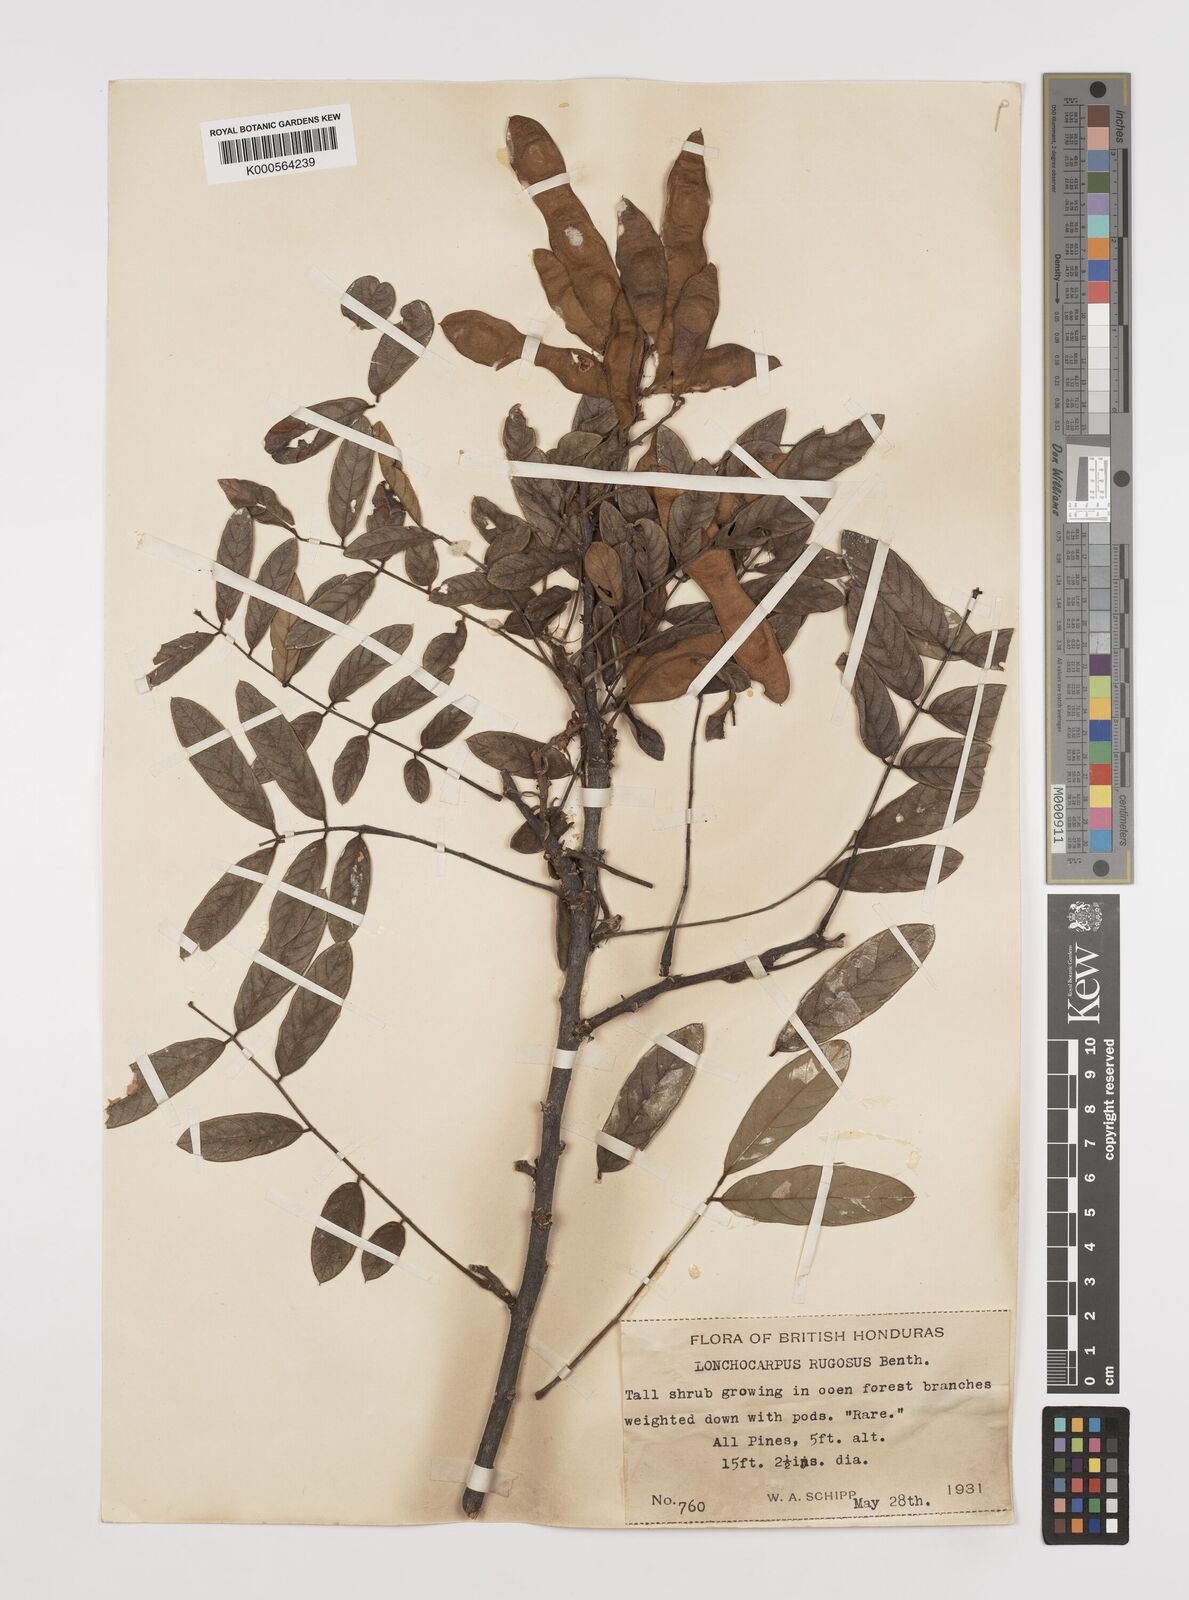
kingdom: Plantae
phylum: Tracheophyta
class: Magnoliopsida
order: Fabales
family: Fabaceae
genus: Lonchocarpus
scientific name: Lonchocarpus rugosus
